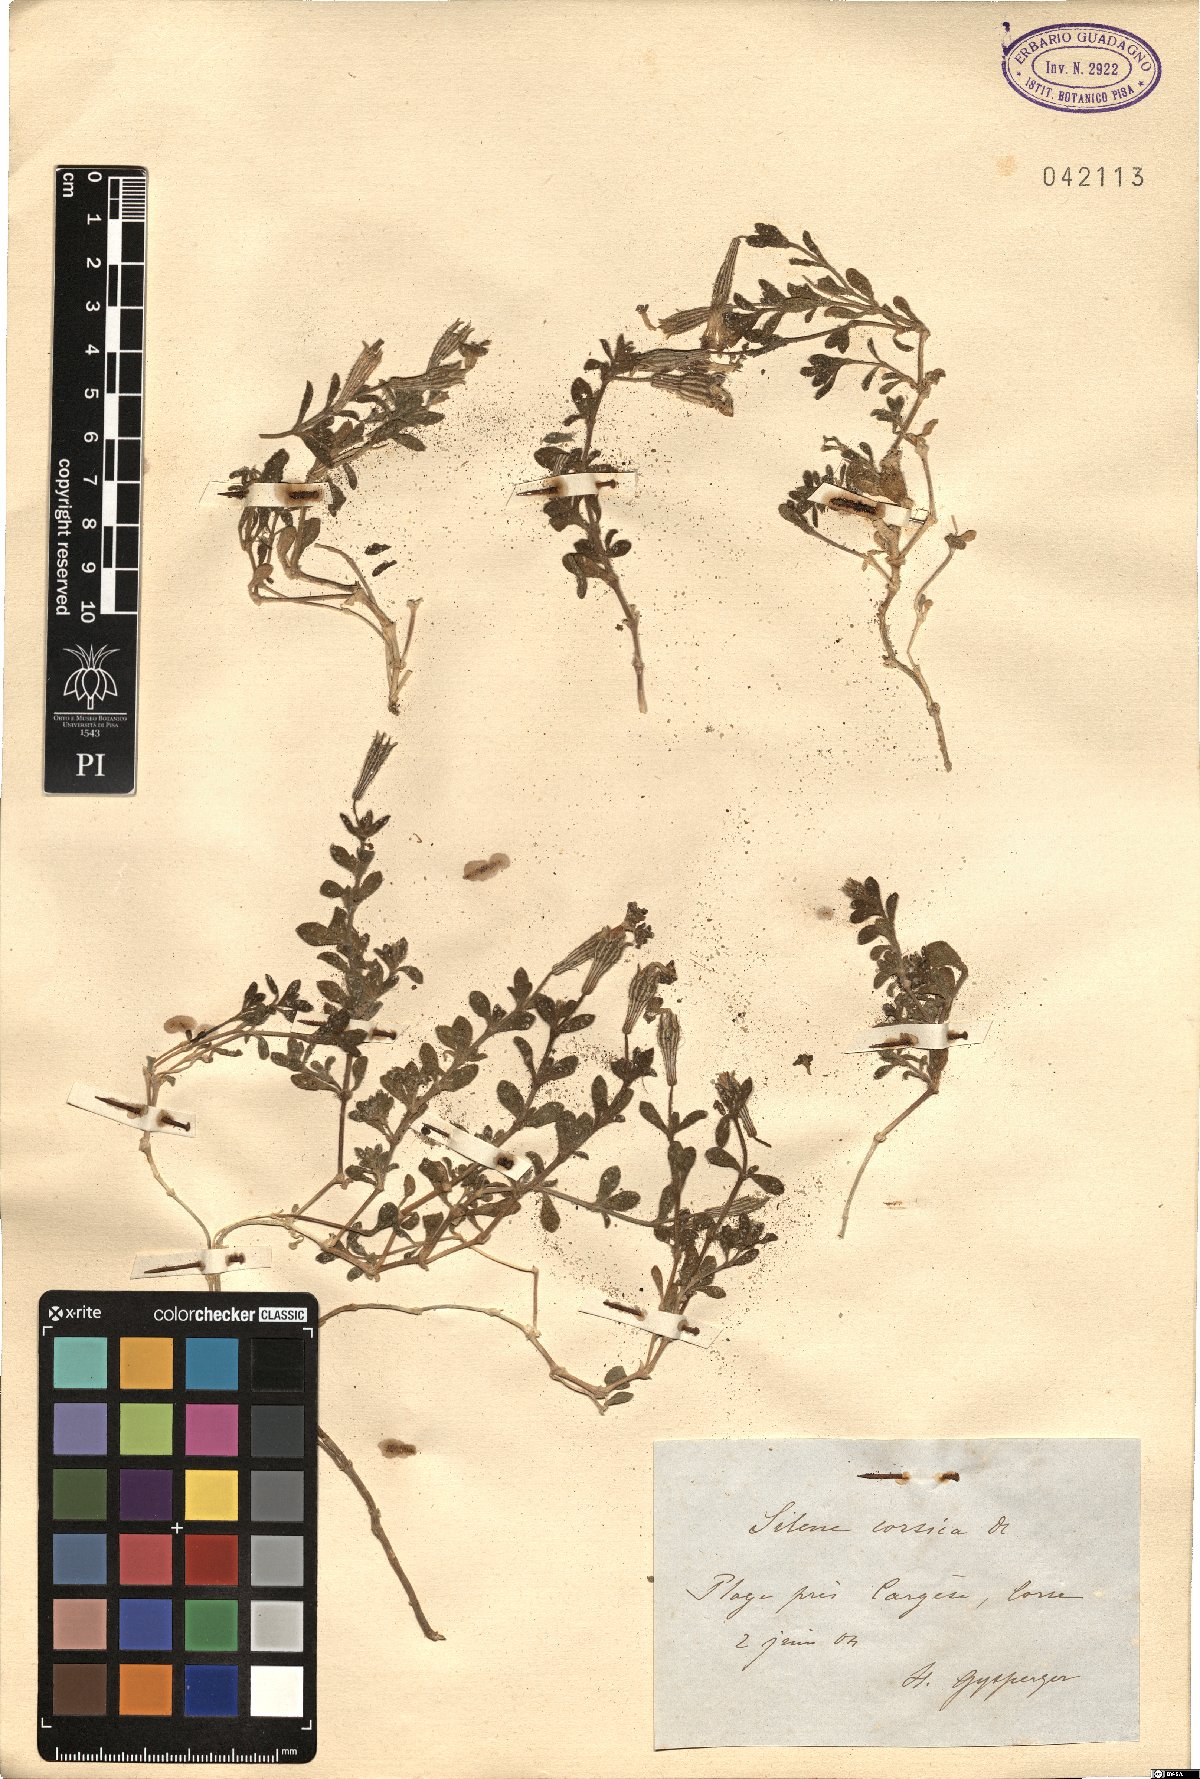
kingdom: Plantae
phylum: Tracheophyta
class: Magnoliopsida
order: Caryophyllales
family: Caryophyllaceae
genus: Silene
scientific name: Silene succulenta
